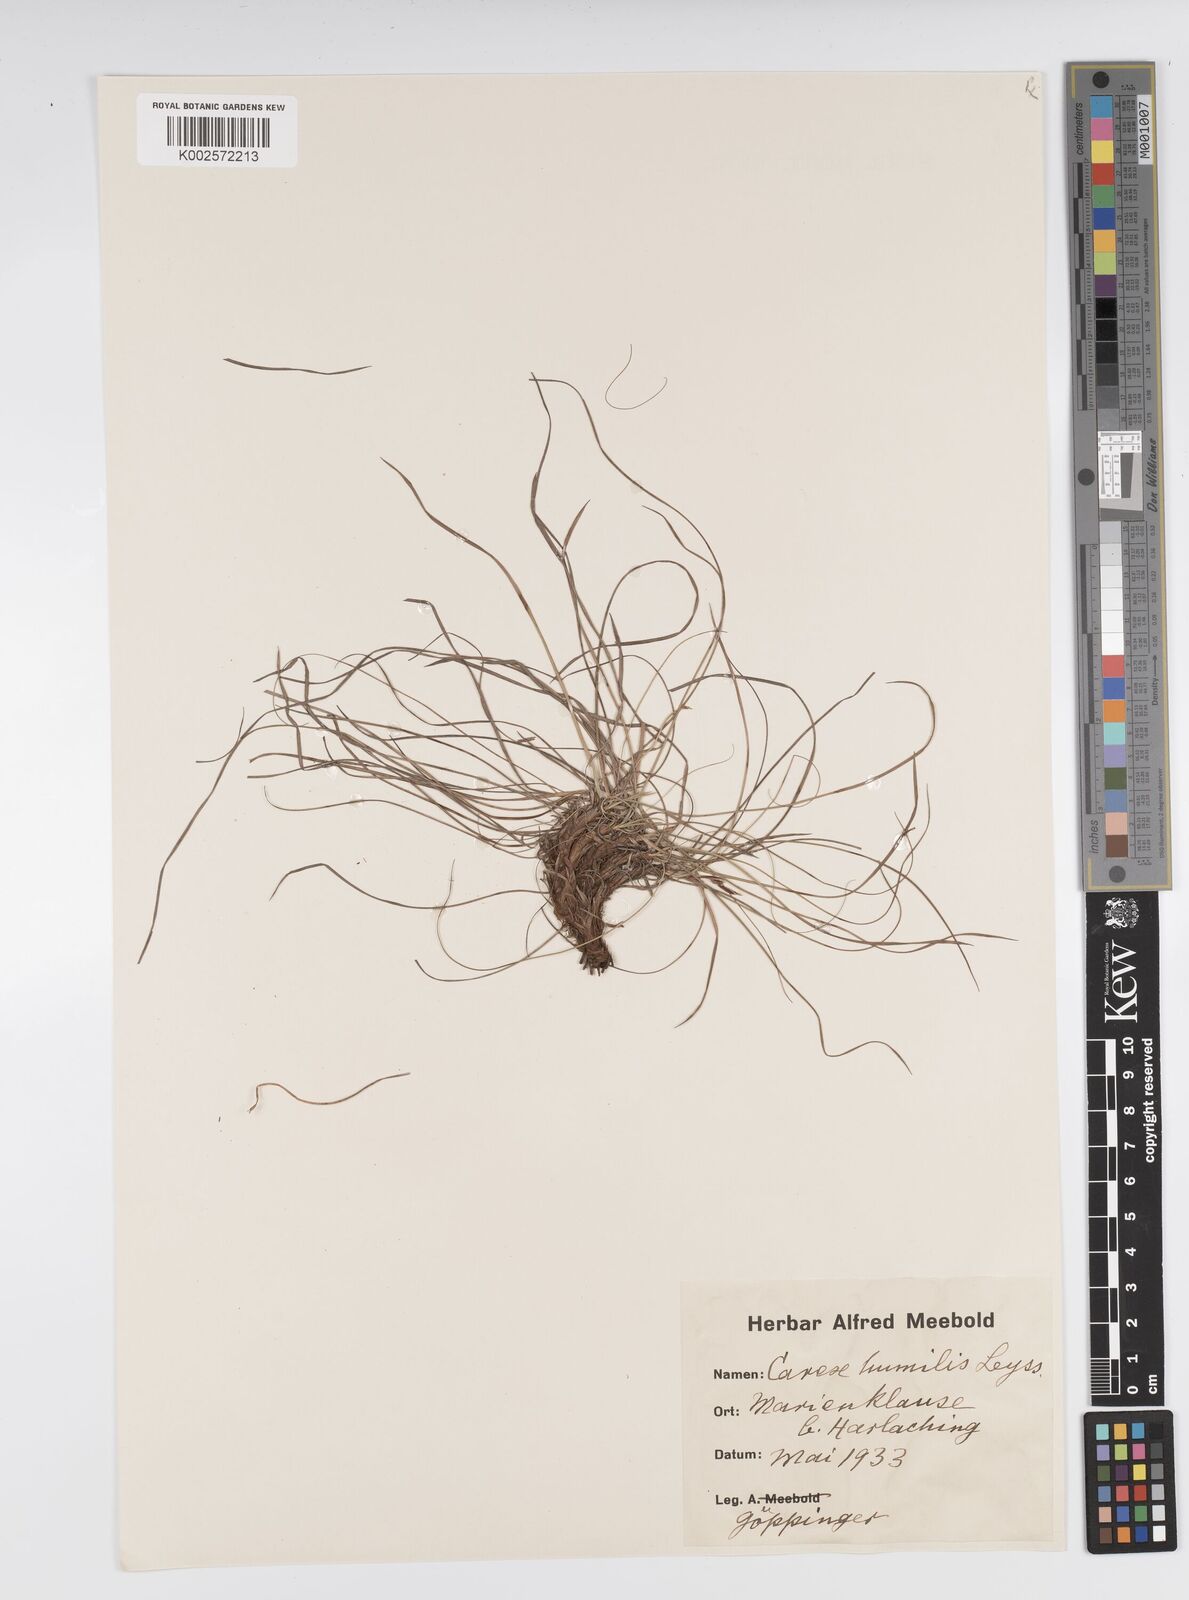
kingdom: Plantae
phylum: Tracheophyta
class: Liliopsida
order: Poales
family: Cyperaceae
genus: Carex
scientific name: Carex humilis
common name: Dwarf sedge
